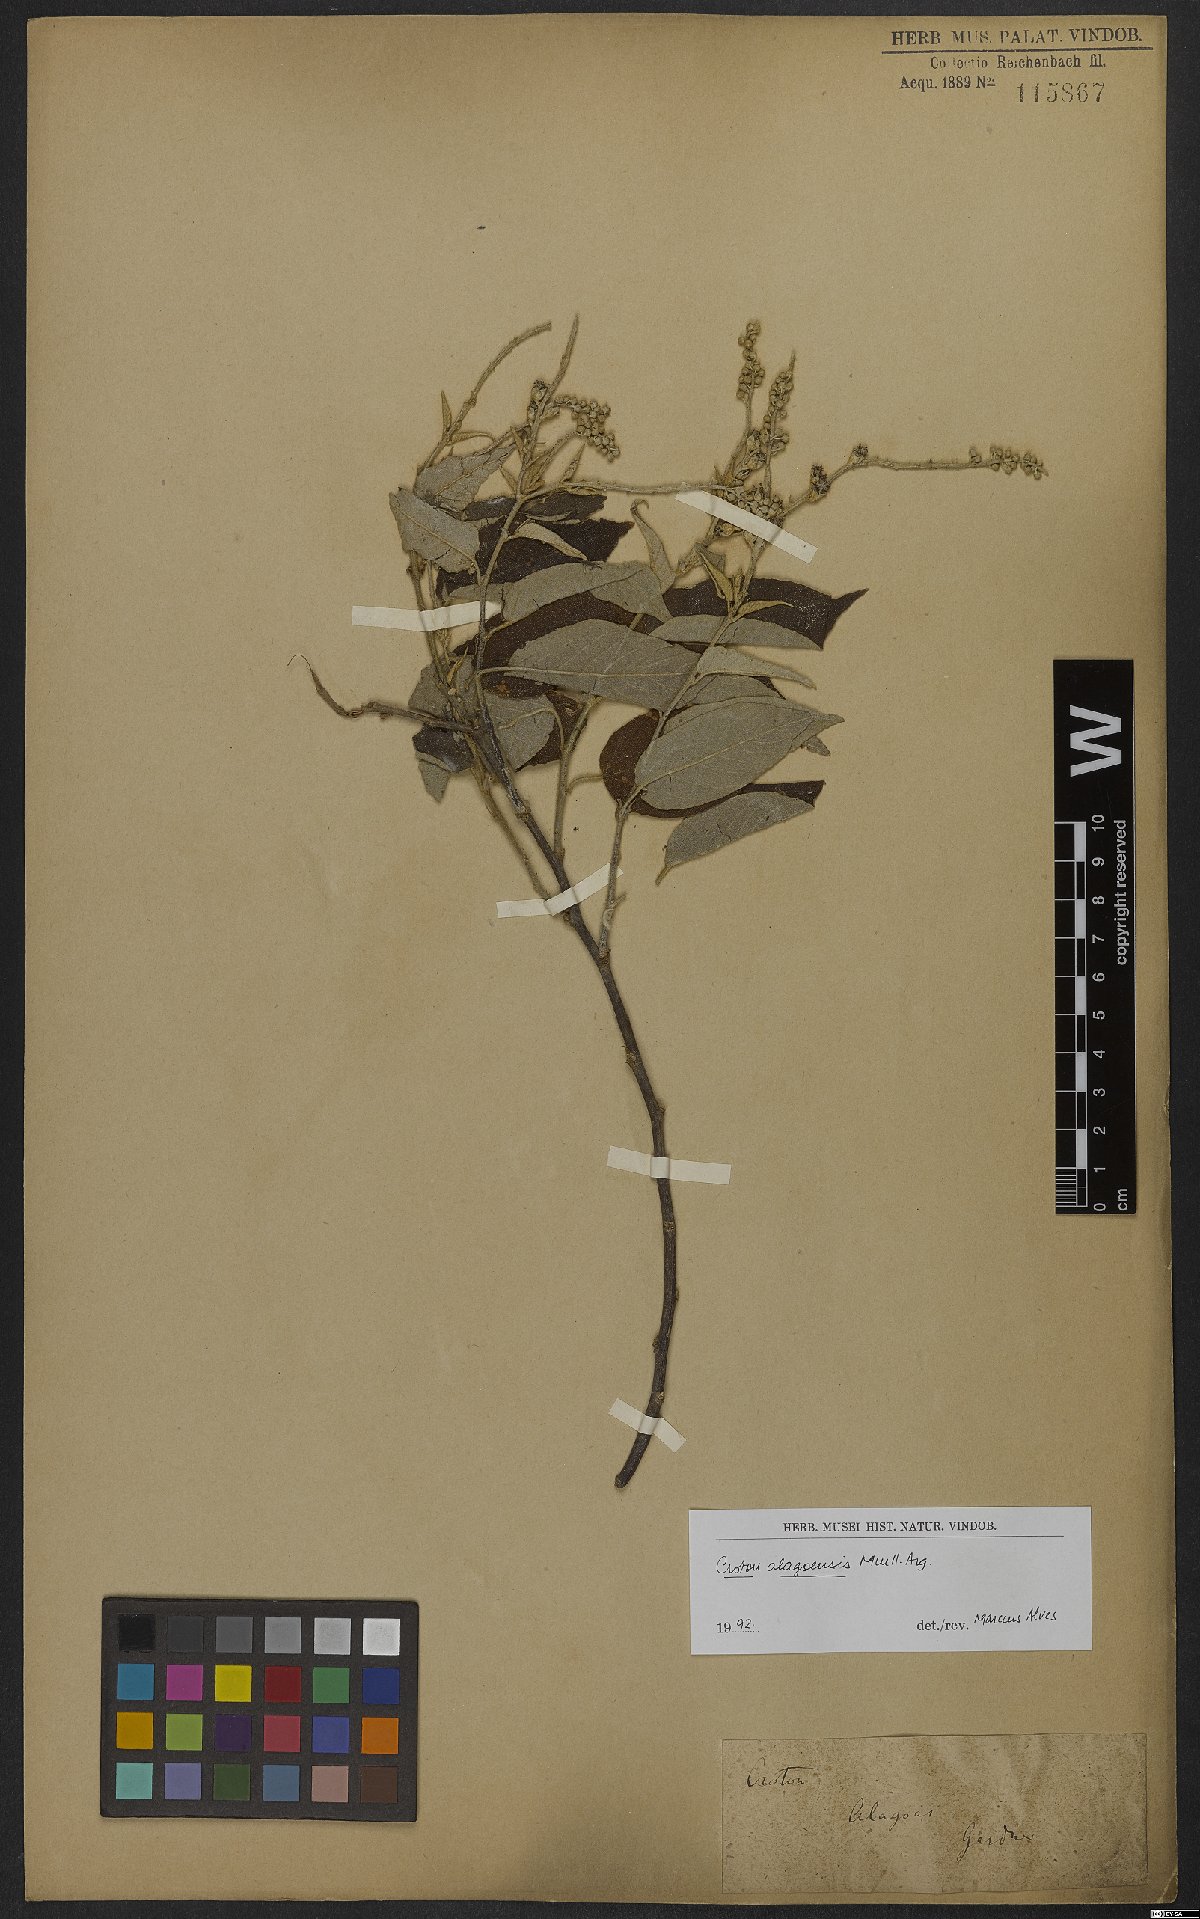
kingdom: Plantae
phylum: Tracheophyta
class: Magnoliopsida
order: Malpighiales
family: Euphorbiaceae
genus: Croton
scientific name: Croton blanchetianus
